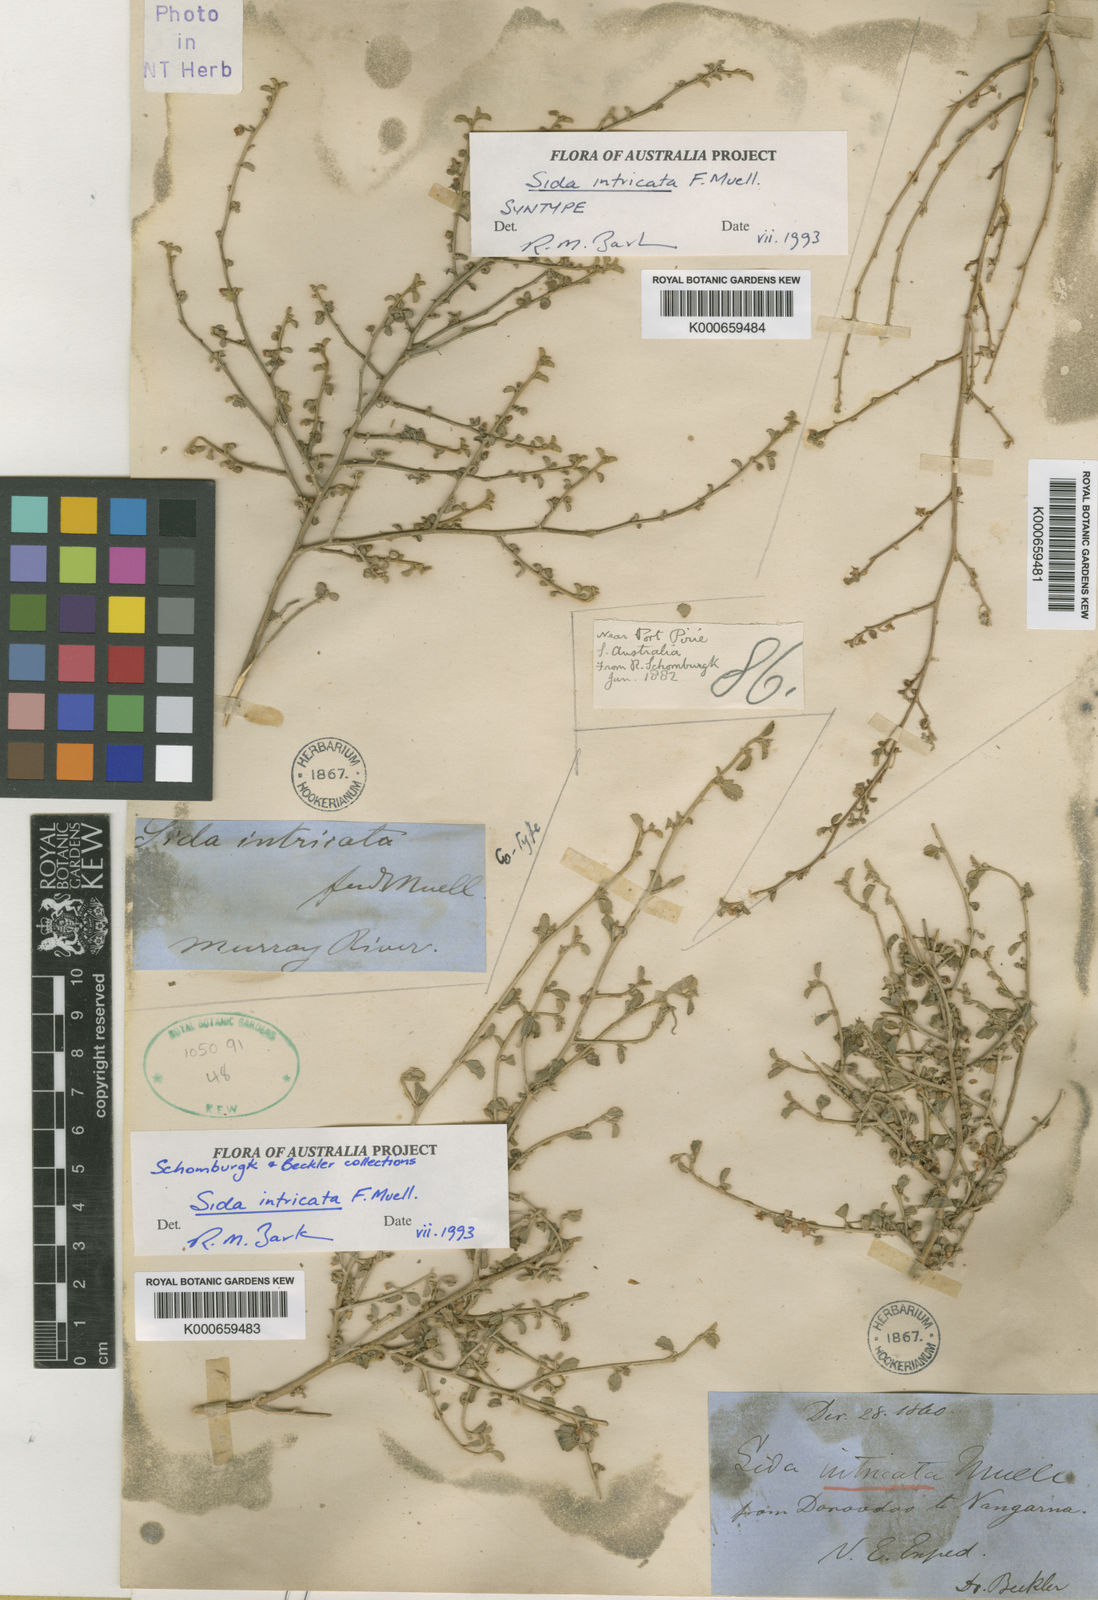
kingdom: Plantae
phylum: Tracheophyta
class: Magnoliopsida
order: Malvales
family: Malvaceae
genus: Sida
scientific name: Sida intricata
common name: Twiggy sida
